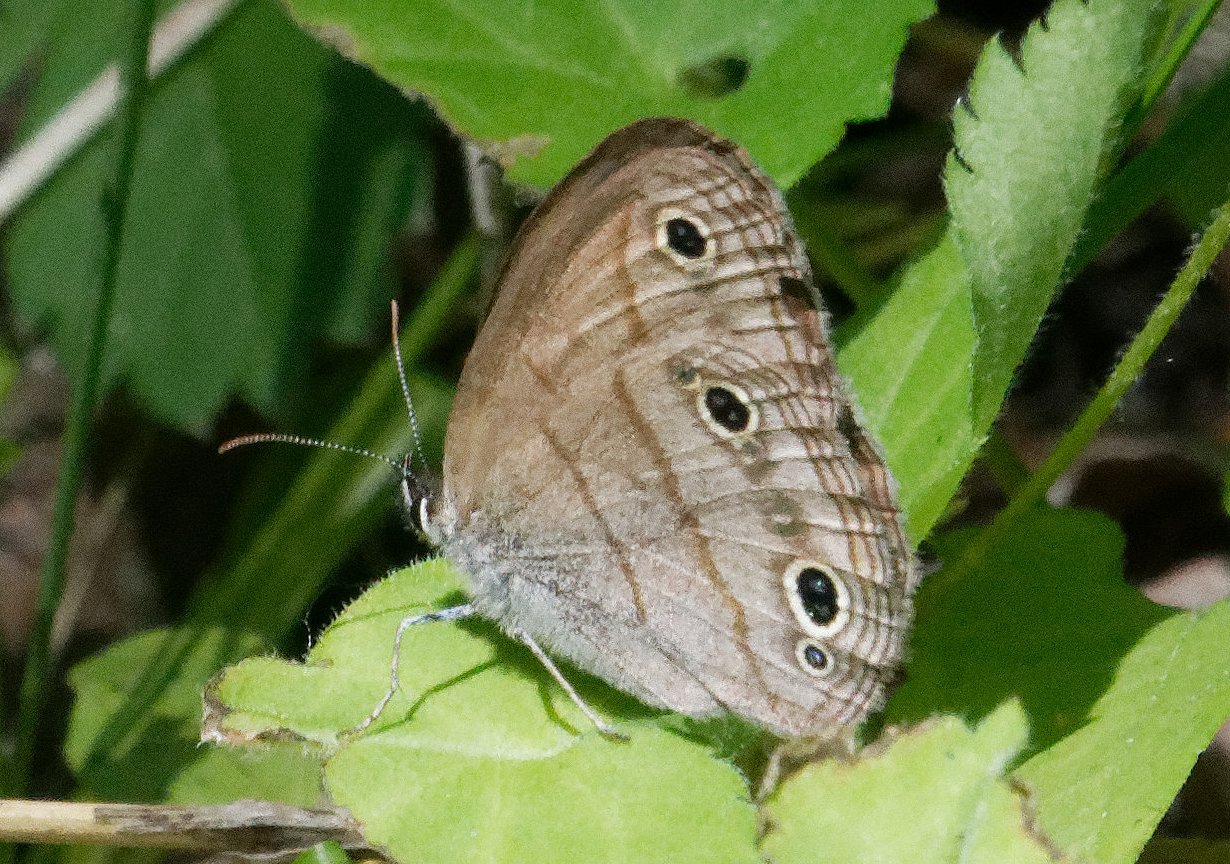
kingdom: Animalia
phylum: Arthropoda
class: Insecta
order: Lepidoptera
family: Nymphalidae
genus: Euptychia
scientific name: Euptychia cymela
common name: Little Wood Satyr
